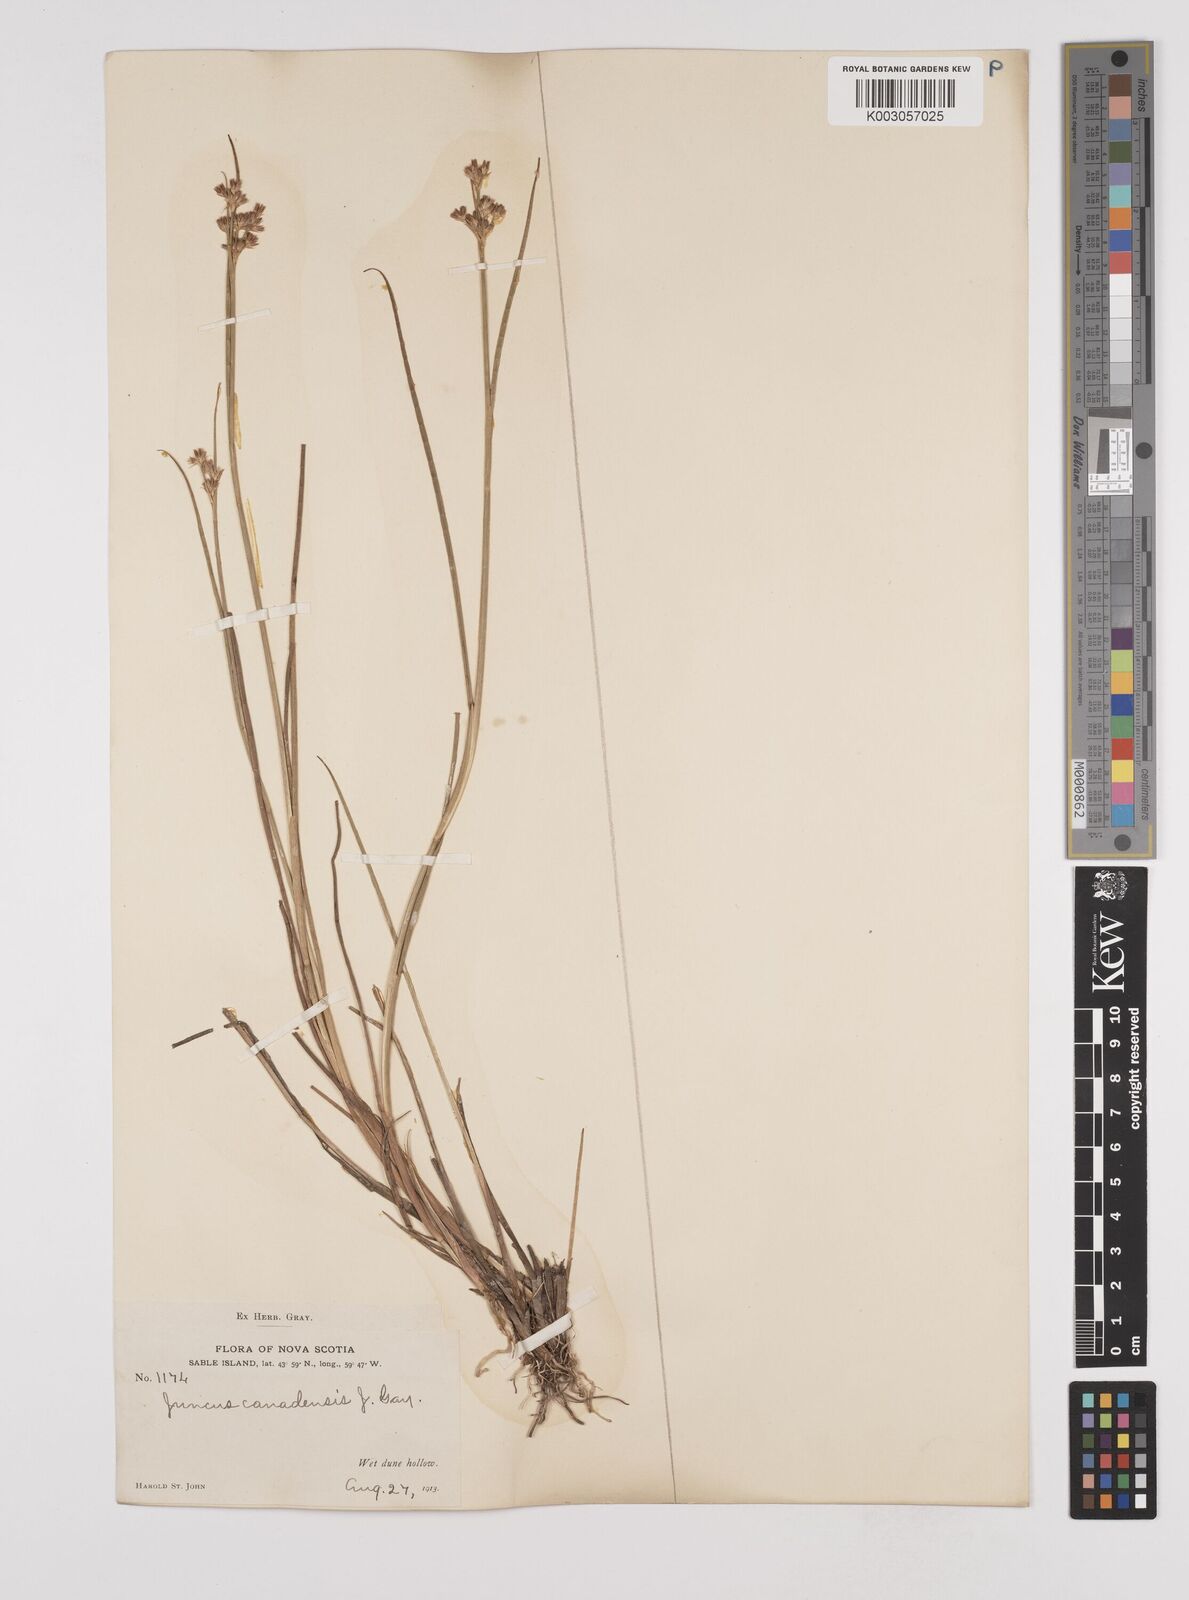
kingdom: Plantae
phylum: Tracheophyta
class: Liliopsida
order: Poales
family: Juncaceae
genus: Juncus
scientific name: Juncus canadensis
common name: Canada rush
